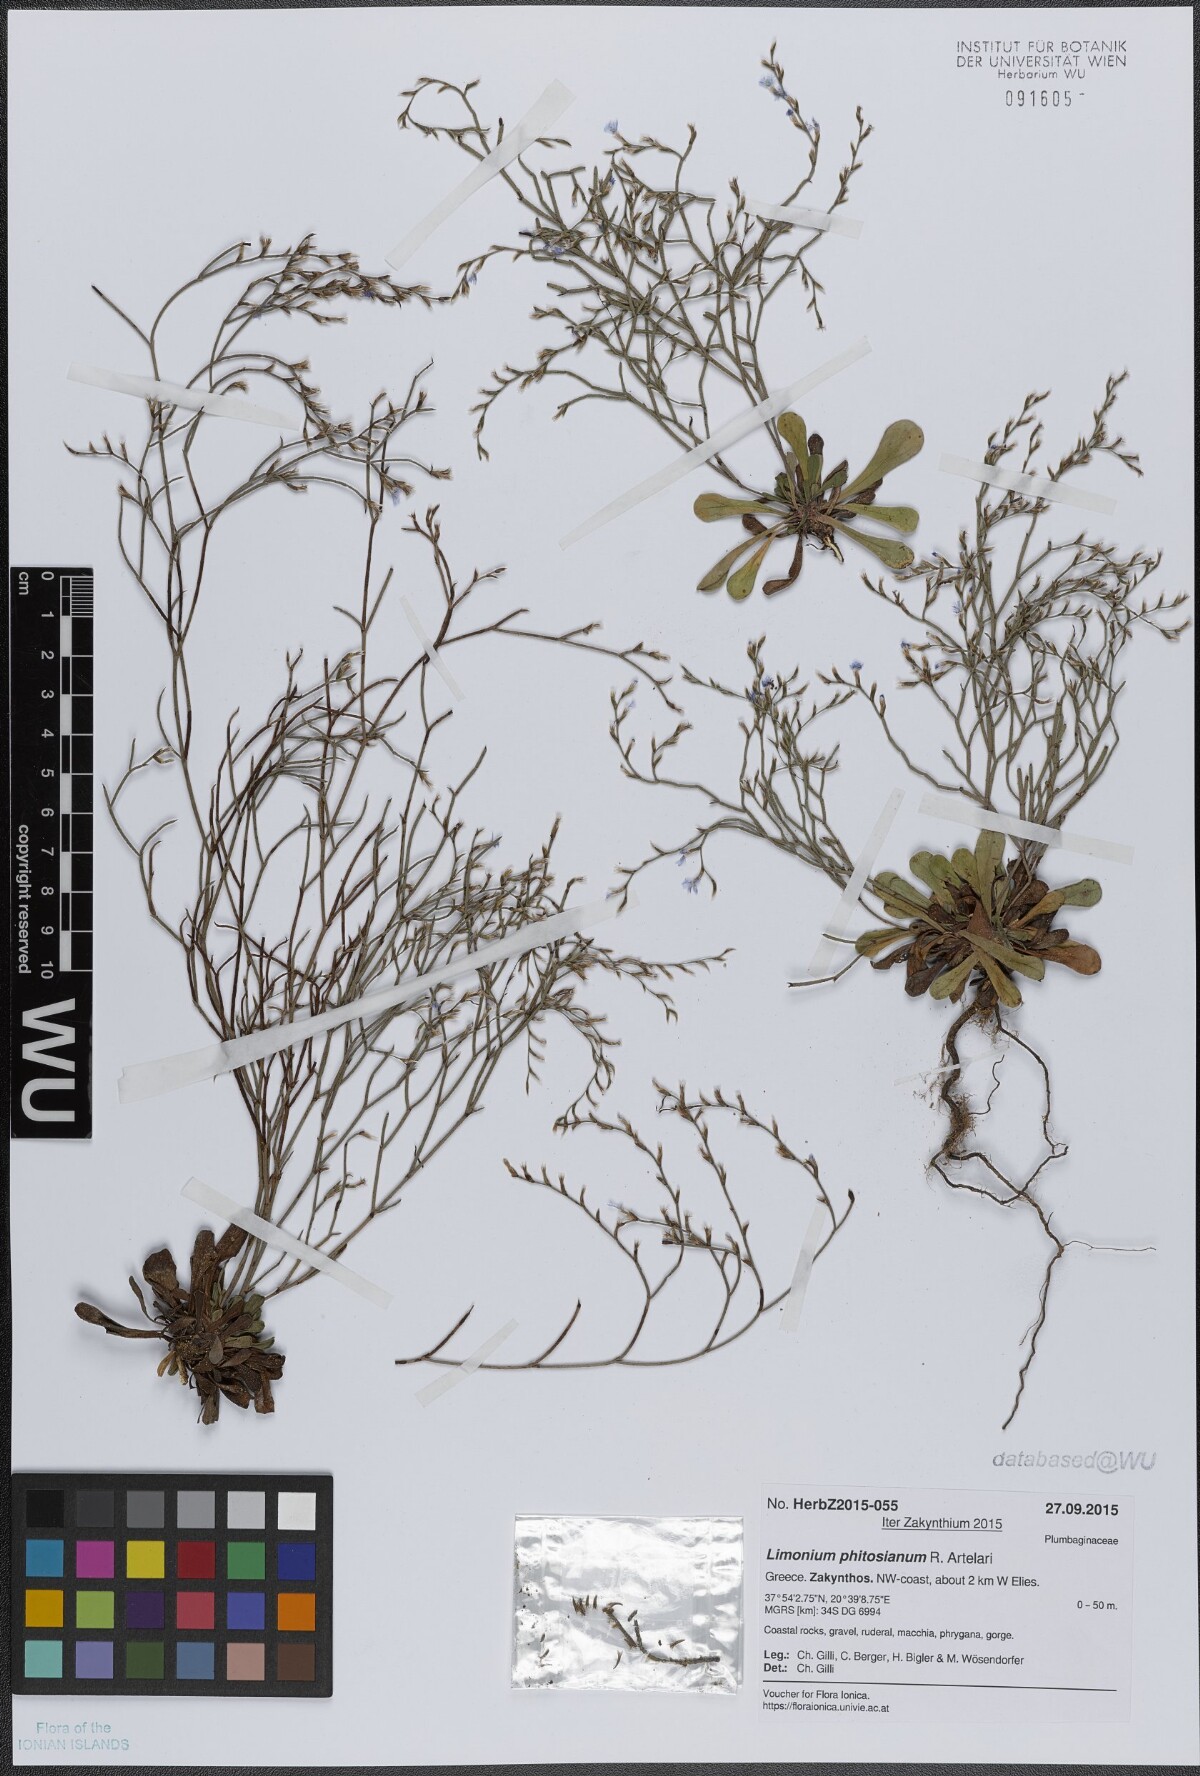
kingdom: Plantae
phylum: Tracheophyta
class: Magnoliopsida
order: Caryophyllales
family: Plumbaginaceae
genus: Limonium
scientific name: Limonium phitosianum
